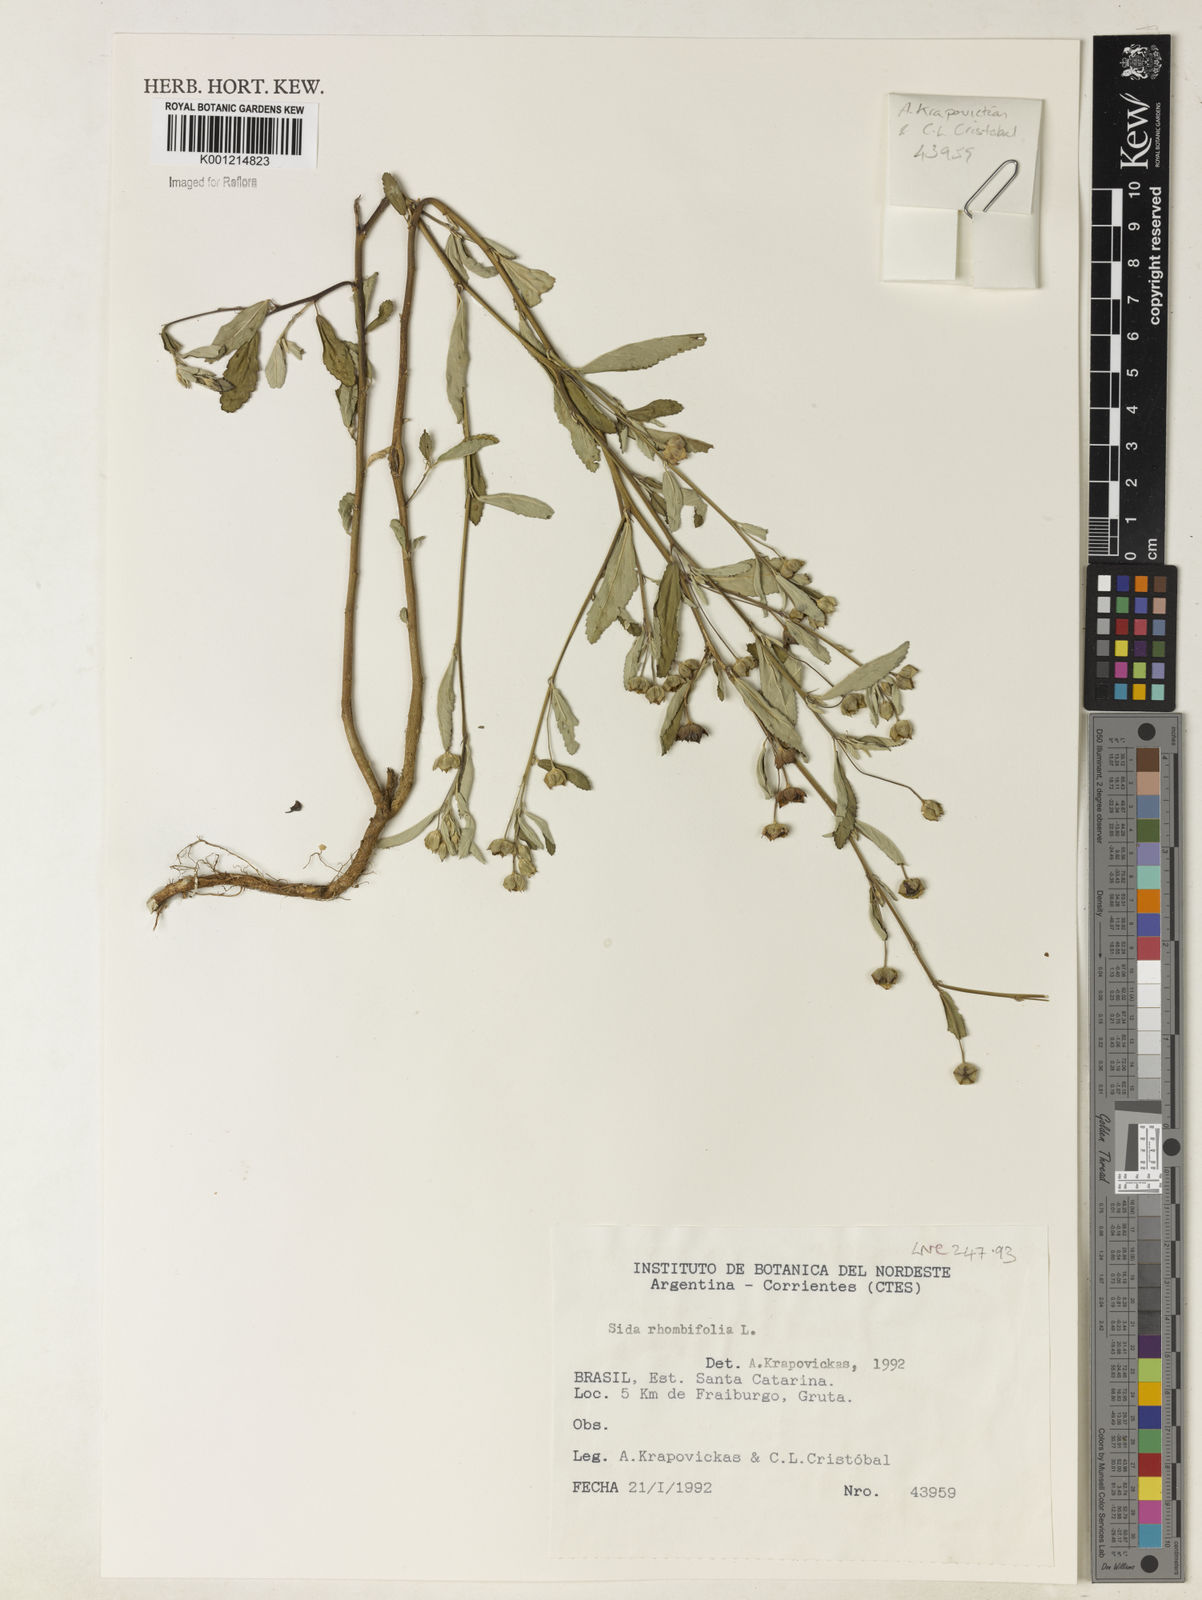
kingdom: Plantae
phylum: Tracheophyta
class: Magnoliopsida
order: Malvales
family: Malvaceae
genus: Sida
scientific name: Sida rhombifolia
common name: Queensland-hemp
